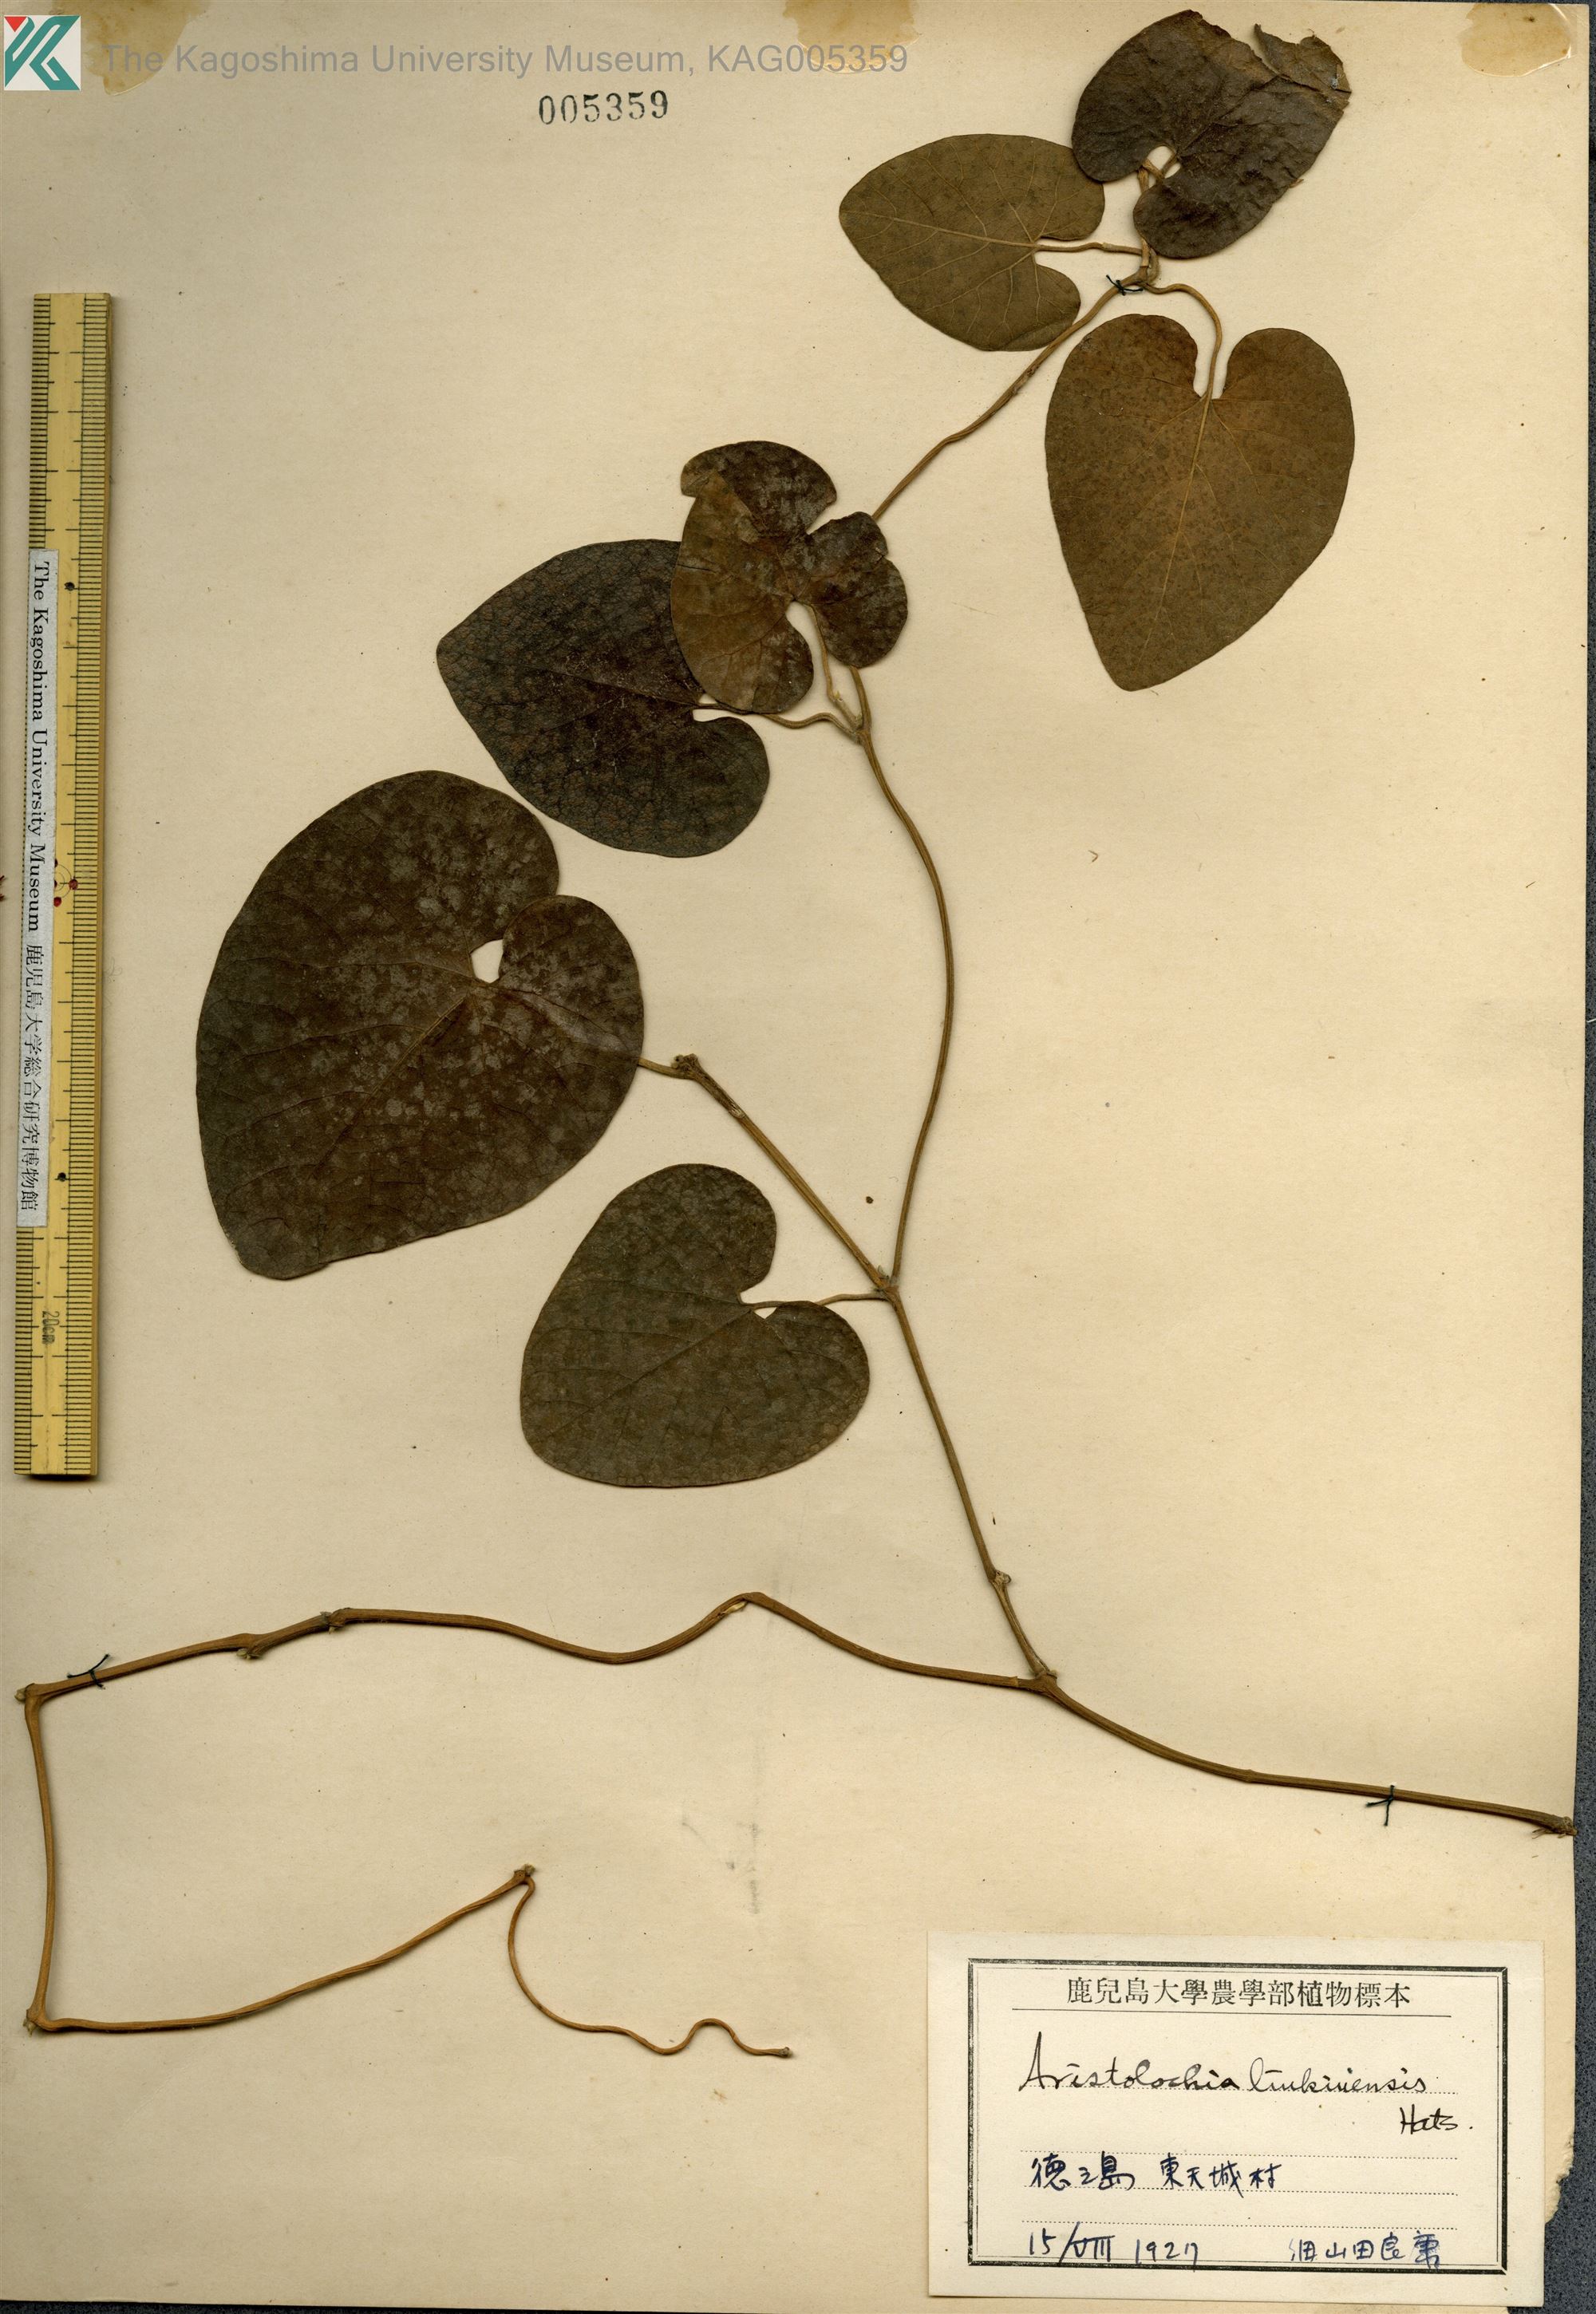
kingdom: Plantae
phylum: Tracheophyta
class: Magnoliopsida
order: Piperales
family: Aristolochiaceae
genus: Isotrema
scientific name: Isotrema liukiuense
